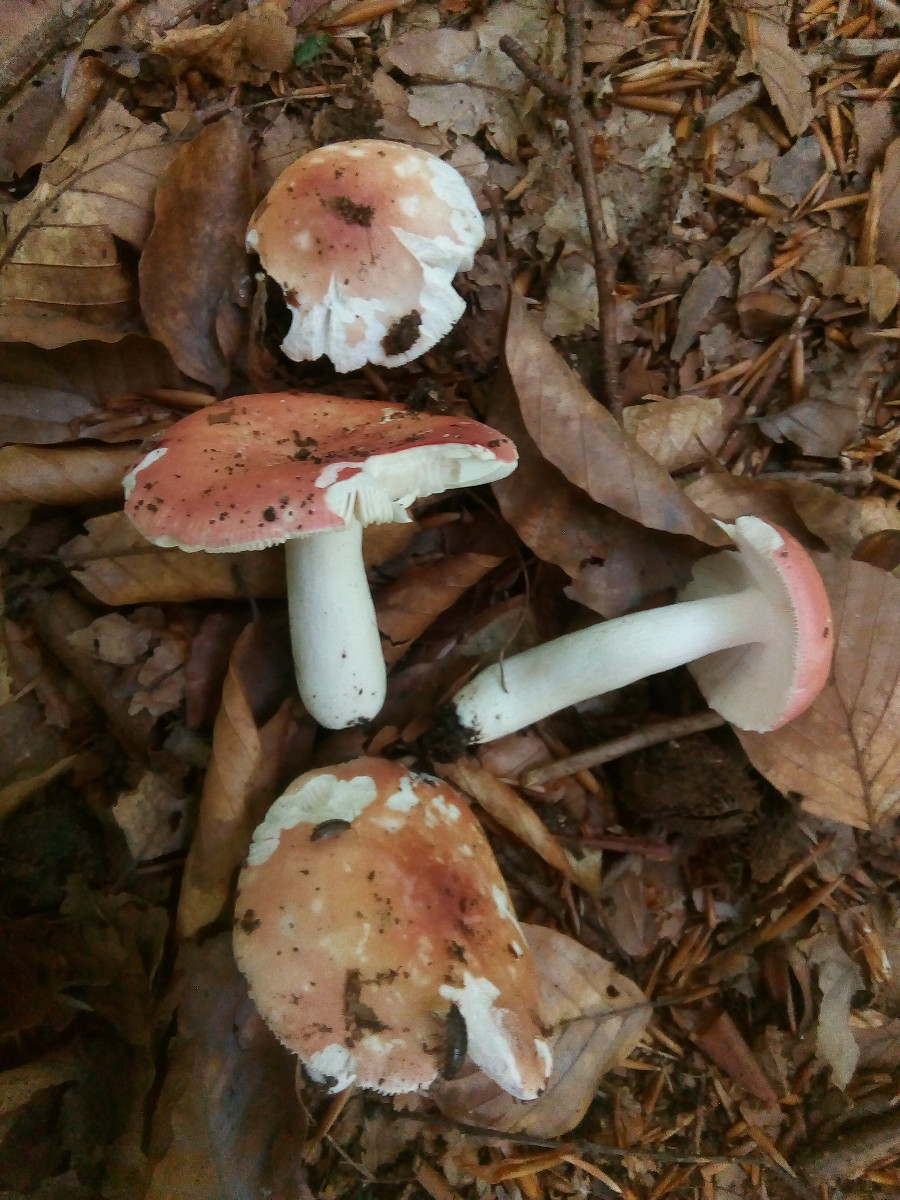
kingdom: Fungi
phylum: Basidiomycota
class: Agaricomycetes
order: Russulales
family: Russulaceae
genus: Russula
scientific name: Russula aurora
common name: rosa skørhat
